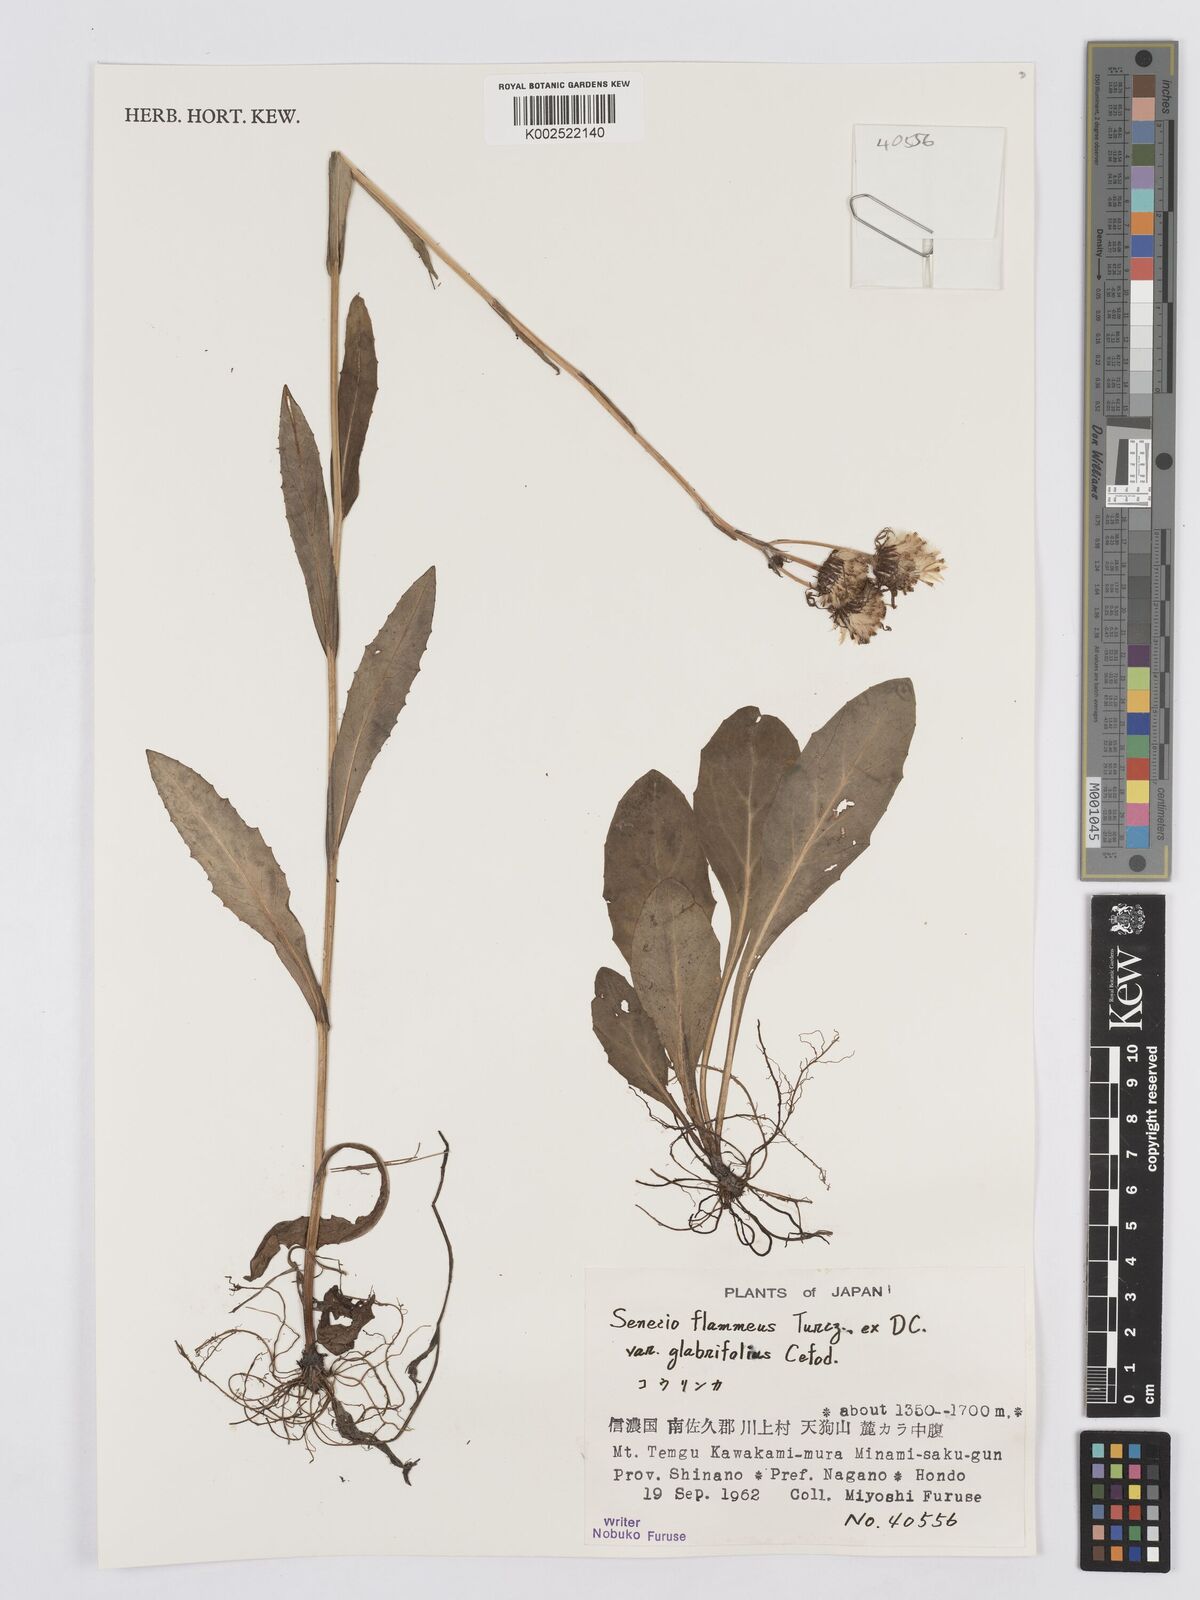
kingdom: Plantae
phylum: Tracheophyta
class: Magnoliopsida
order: Asterales
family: Asteraceae
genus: Tephroseris
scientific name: Tephroseris flammea
